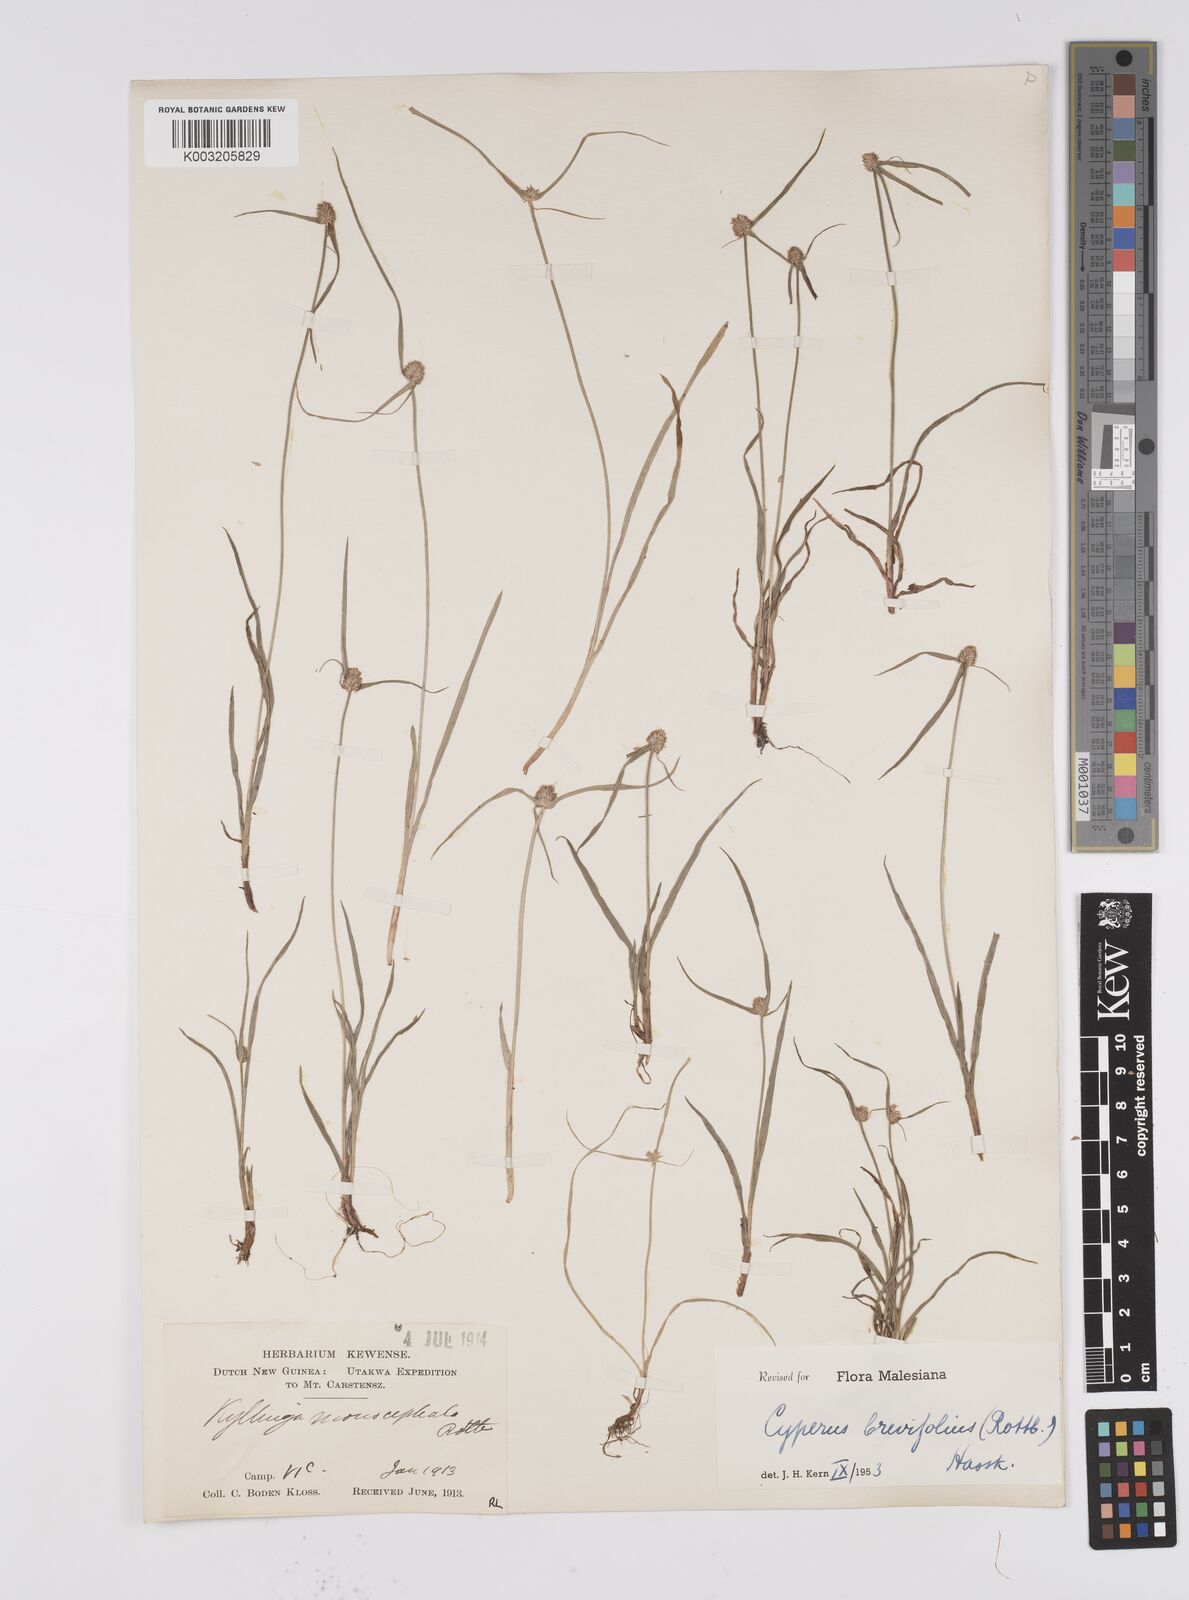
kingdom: Plantae
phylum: Tracheophyta
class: Liliopsida
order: Poales
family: Cyperaceae
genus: Cyperus
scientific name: Cyperus brevifolius
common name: Globe kyllinga
